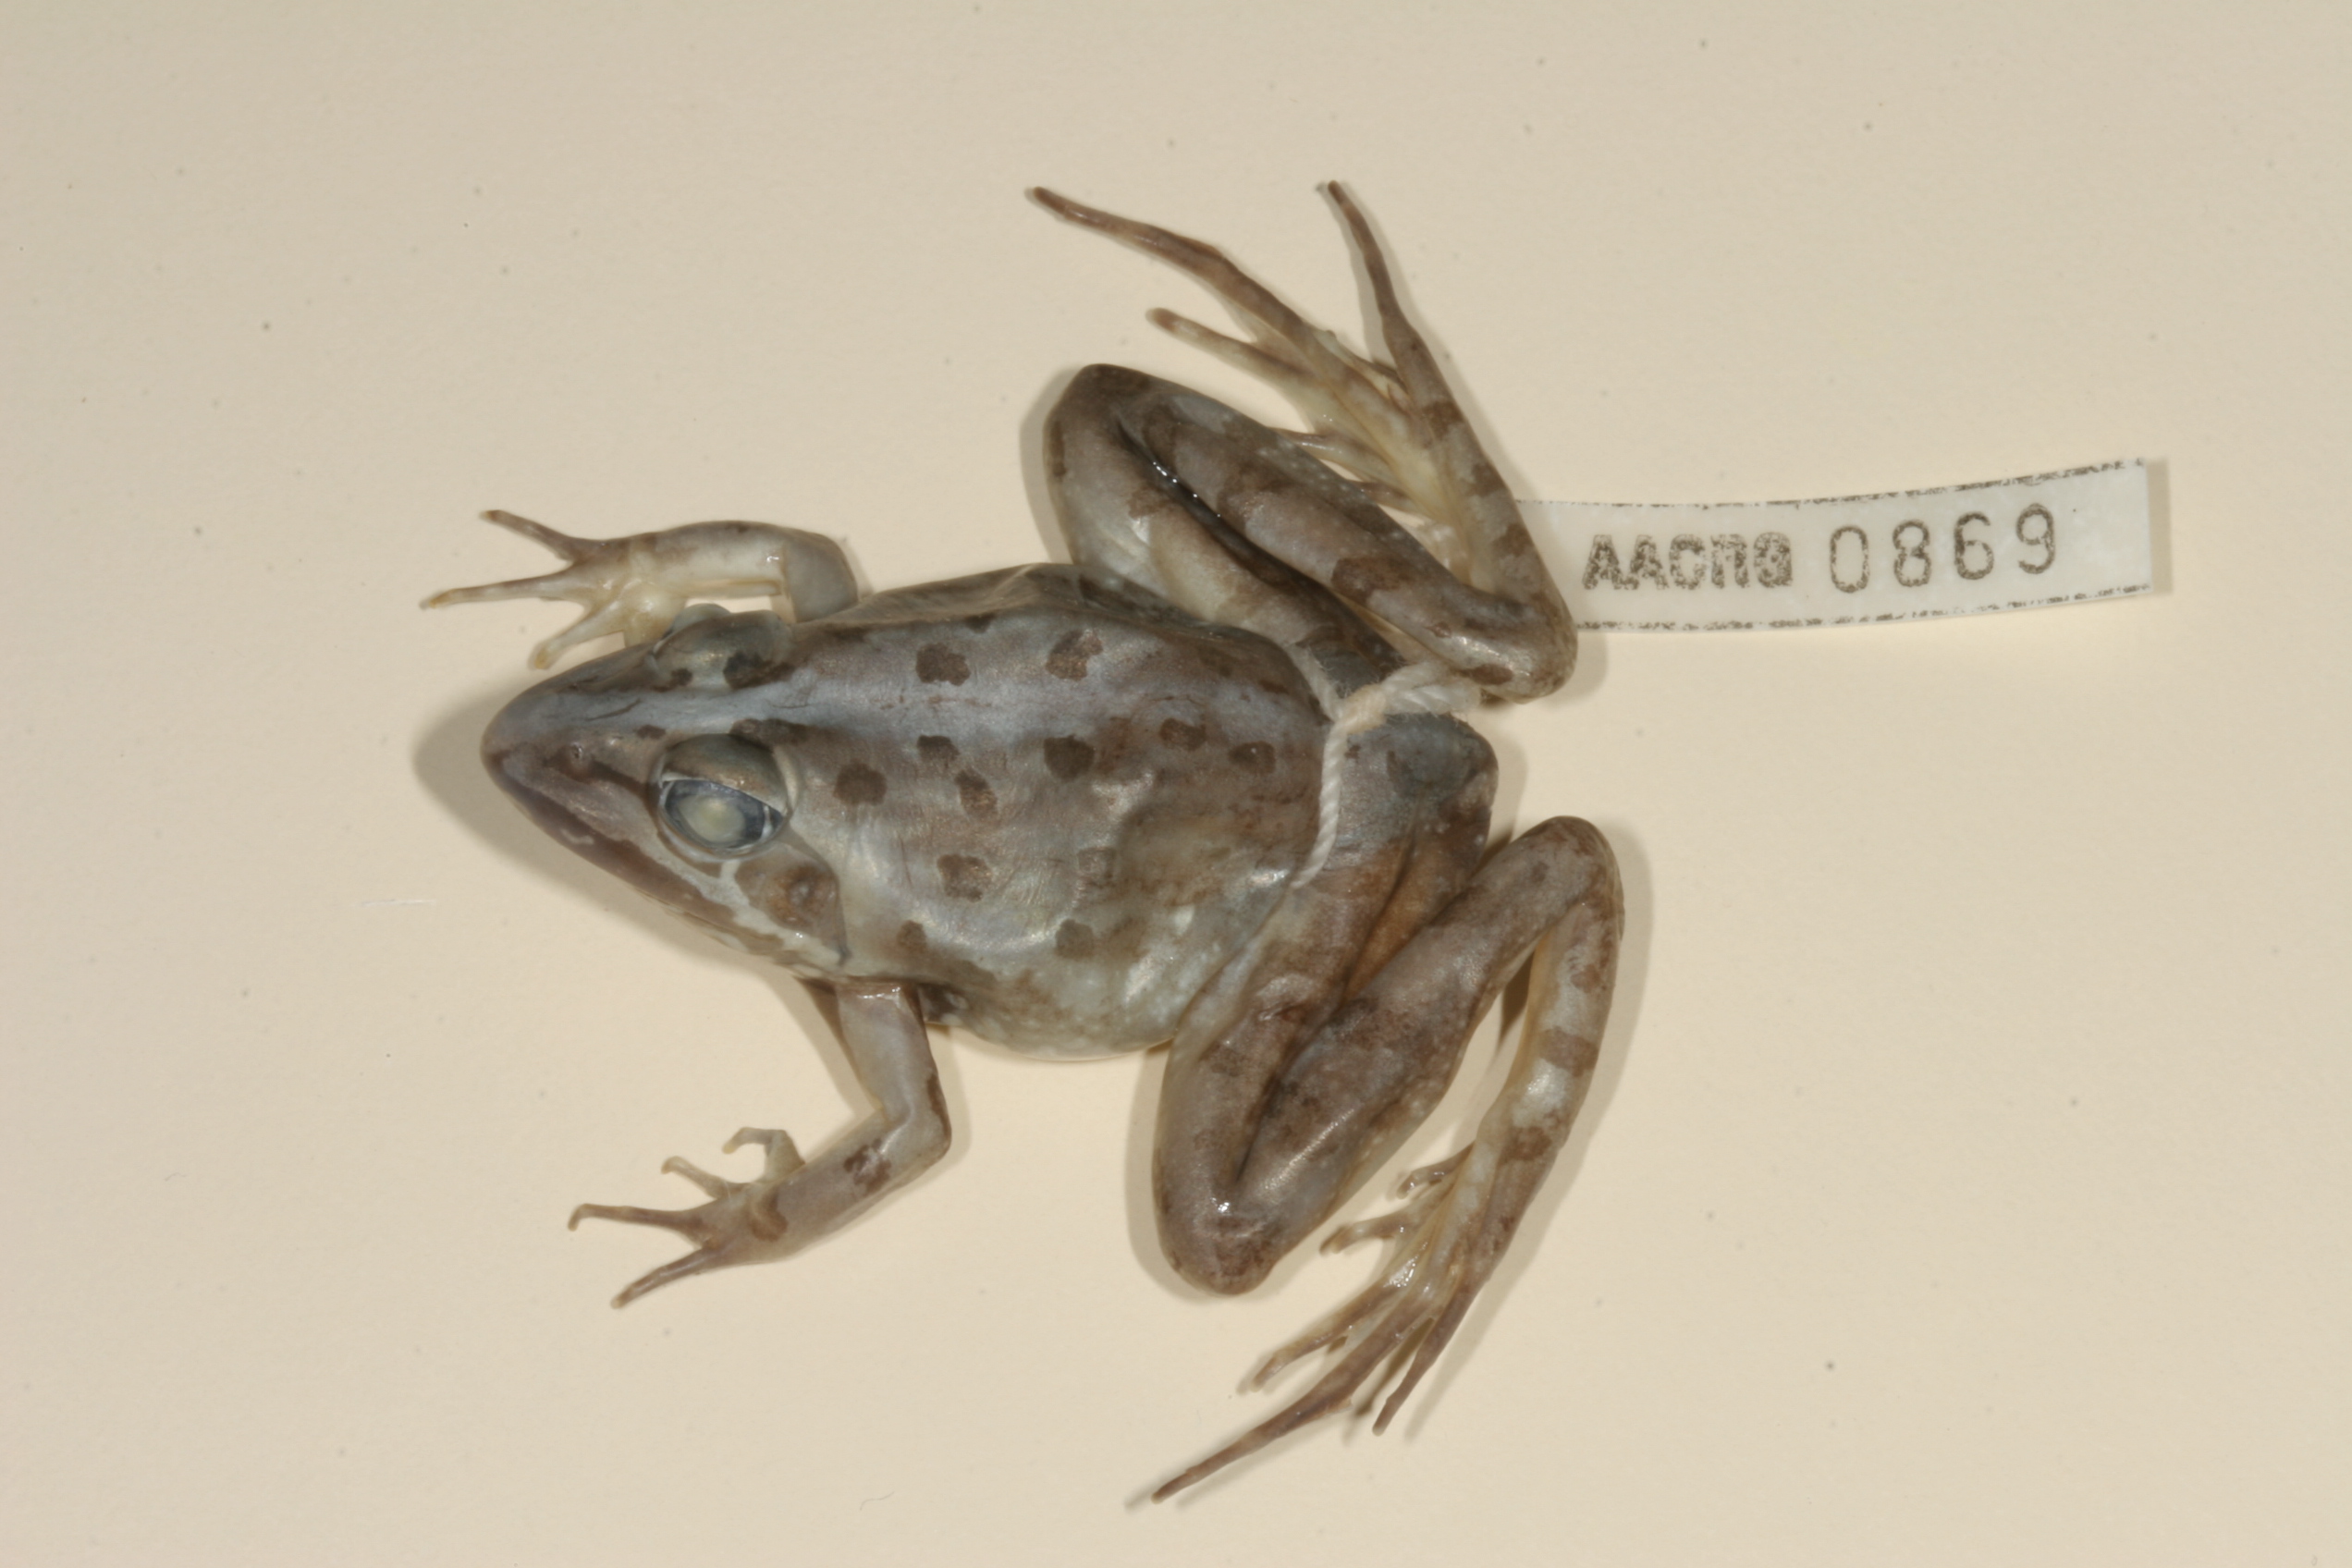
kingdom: Animalia
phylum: Chordata
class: Amphibia
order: Anura
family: Pyxicephalidae
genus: Amietia
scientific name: Amietia angolensis
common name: Dusky-throated frog
